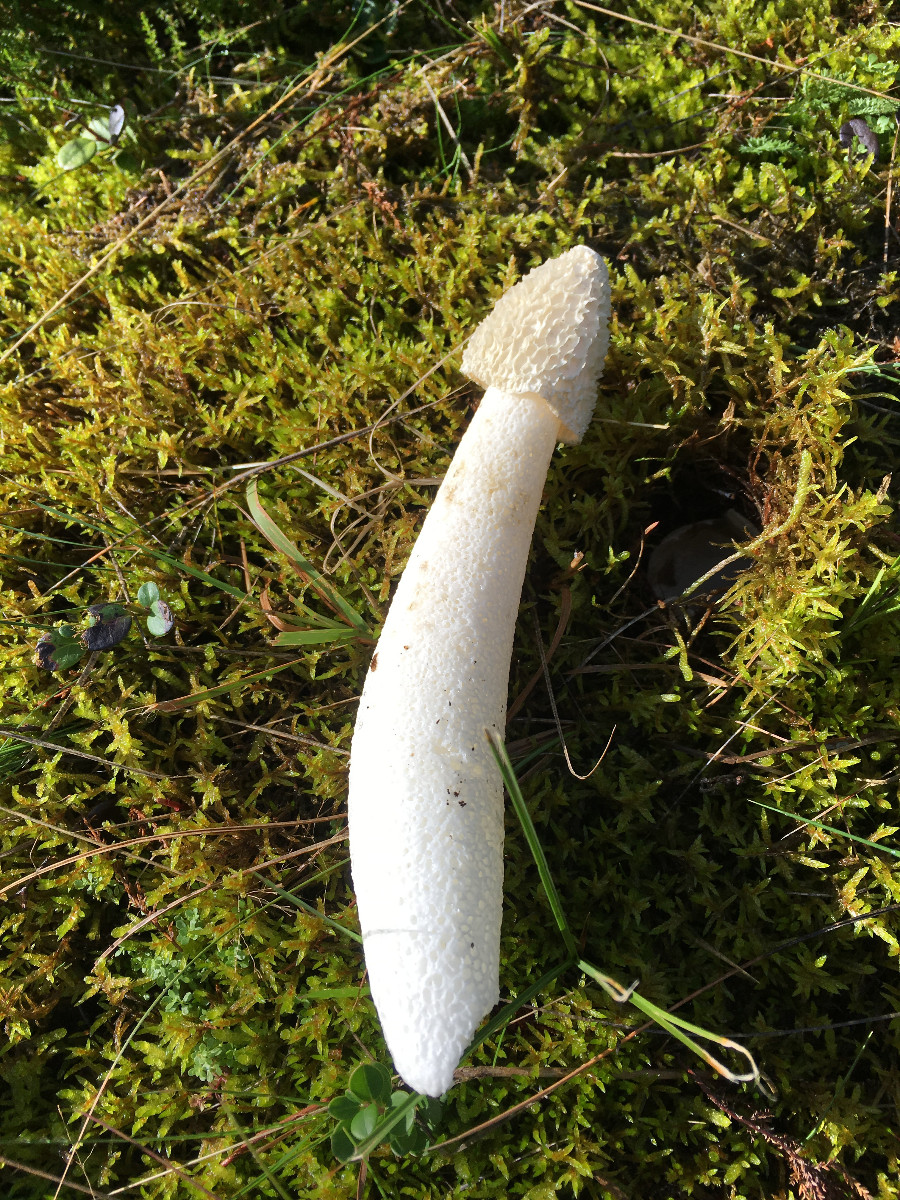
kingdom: Fungi
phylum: Basidiomycota
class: Agaricomycetes
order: Phallales
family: Phallaceae
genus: Phallus
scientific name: Phallus impudicus
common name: almindelig stinksvamp
